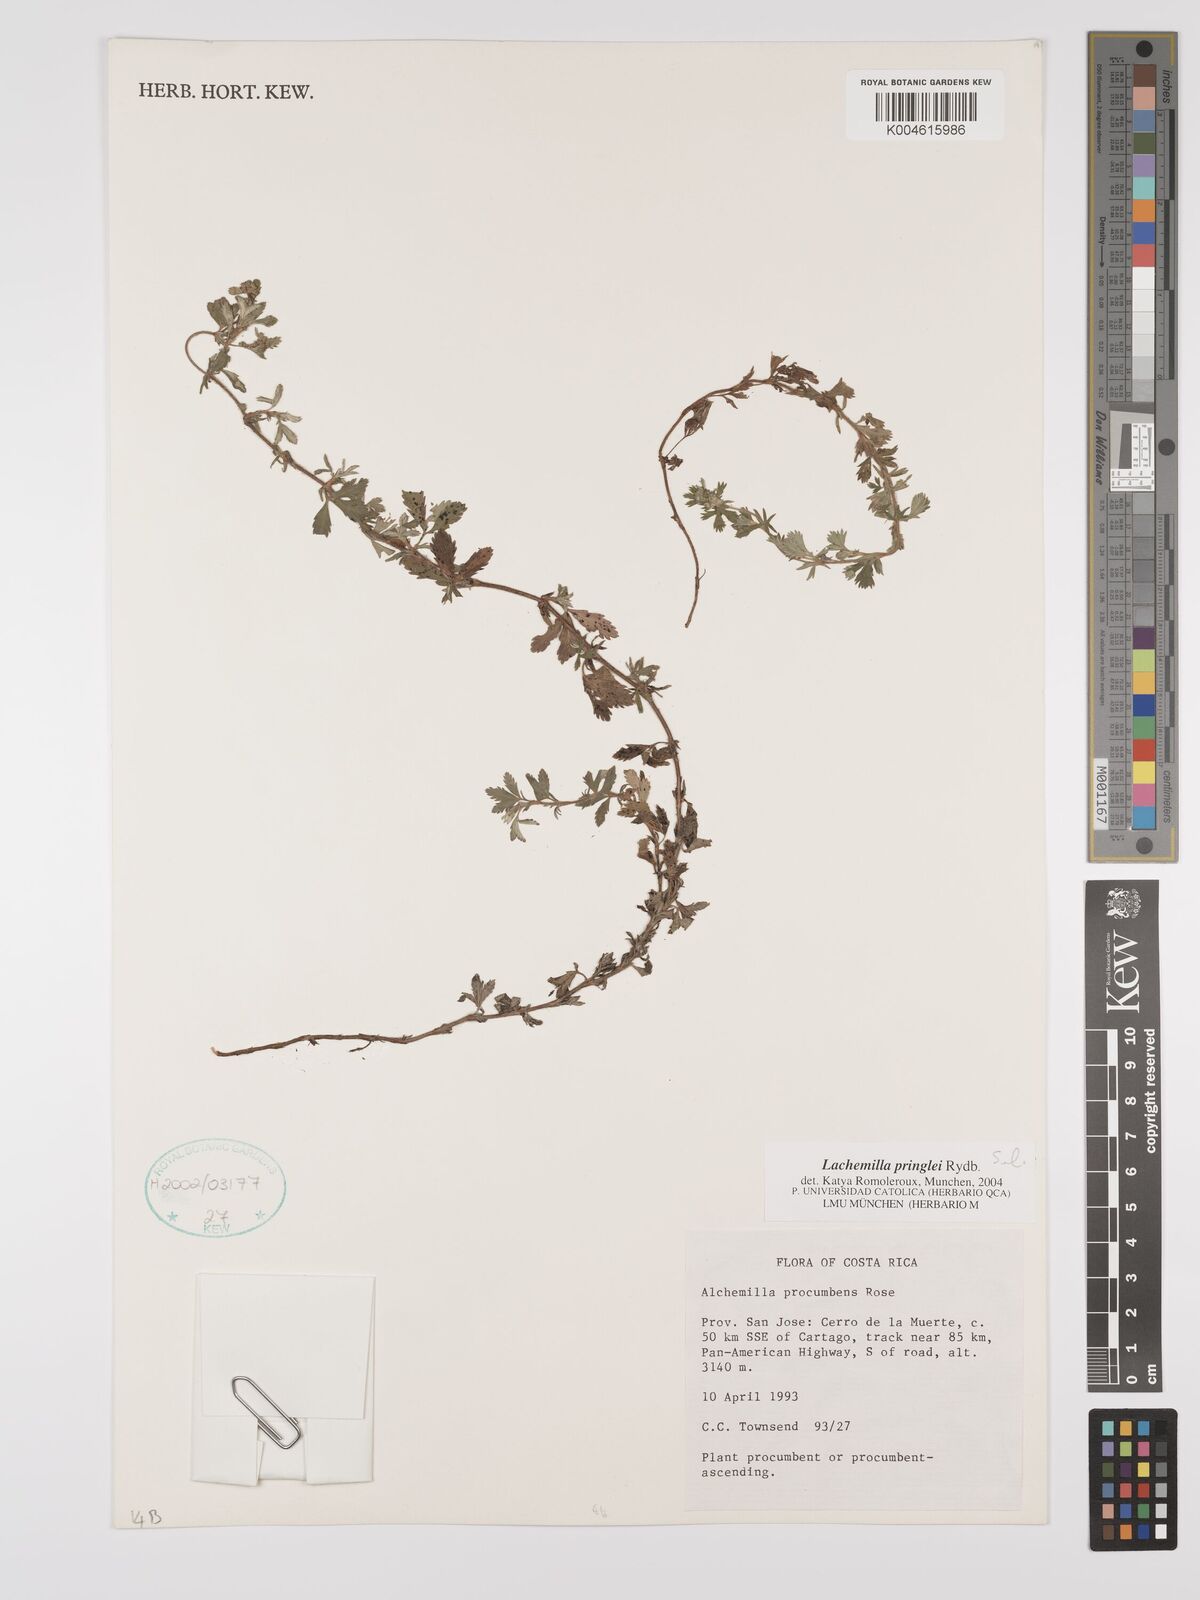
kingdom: Plantae
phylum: Tracheophyta
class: Magnoliopsida
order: Rosales
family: Rosaceae
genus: Lachemilla
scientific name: Lachemilla sibbaldiifolia
